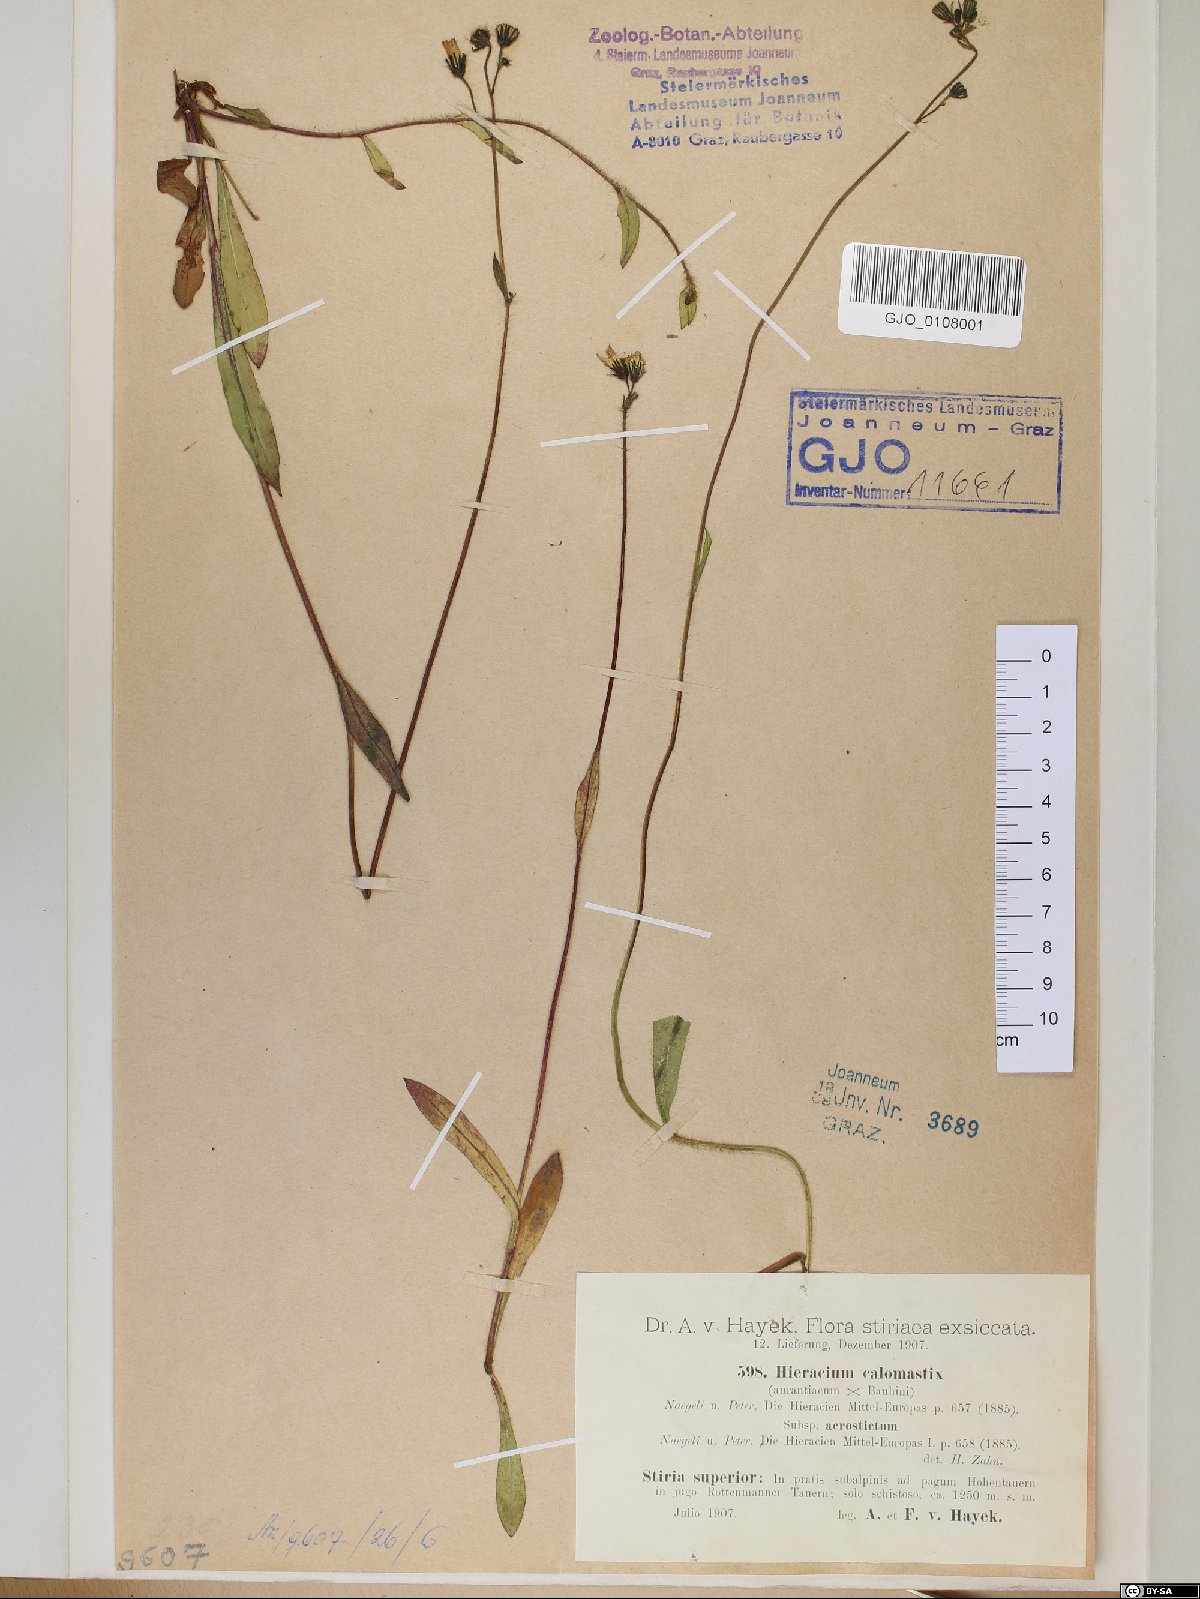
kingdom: Plantae
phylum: Tracheophyta
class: Magnoliopsida
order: Asterales
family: Asteraceae
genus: Pilosella
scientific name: Pilosella calomastix
